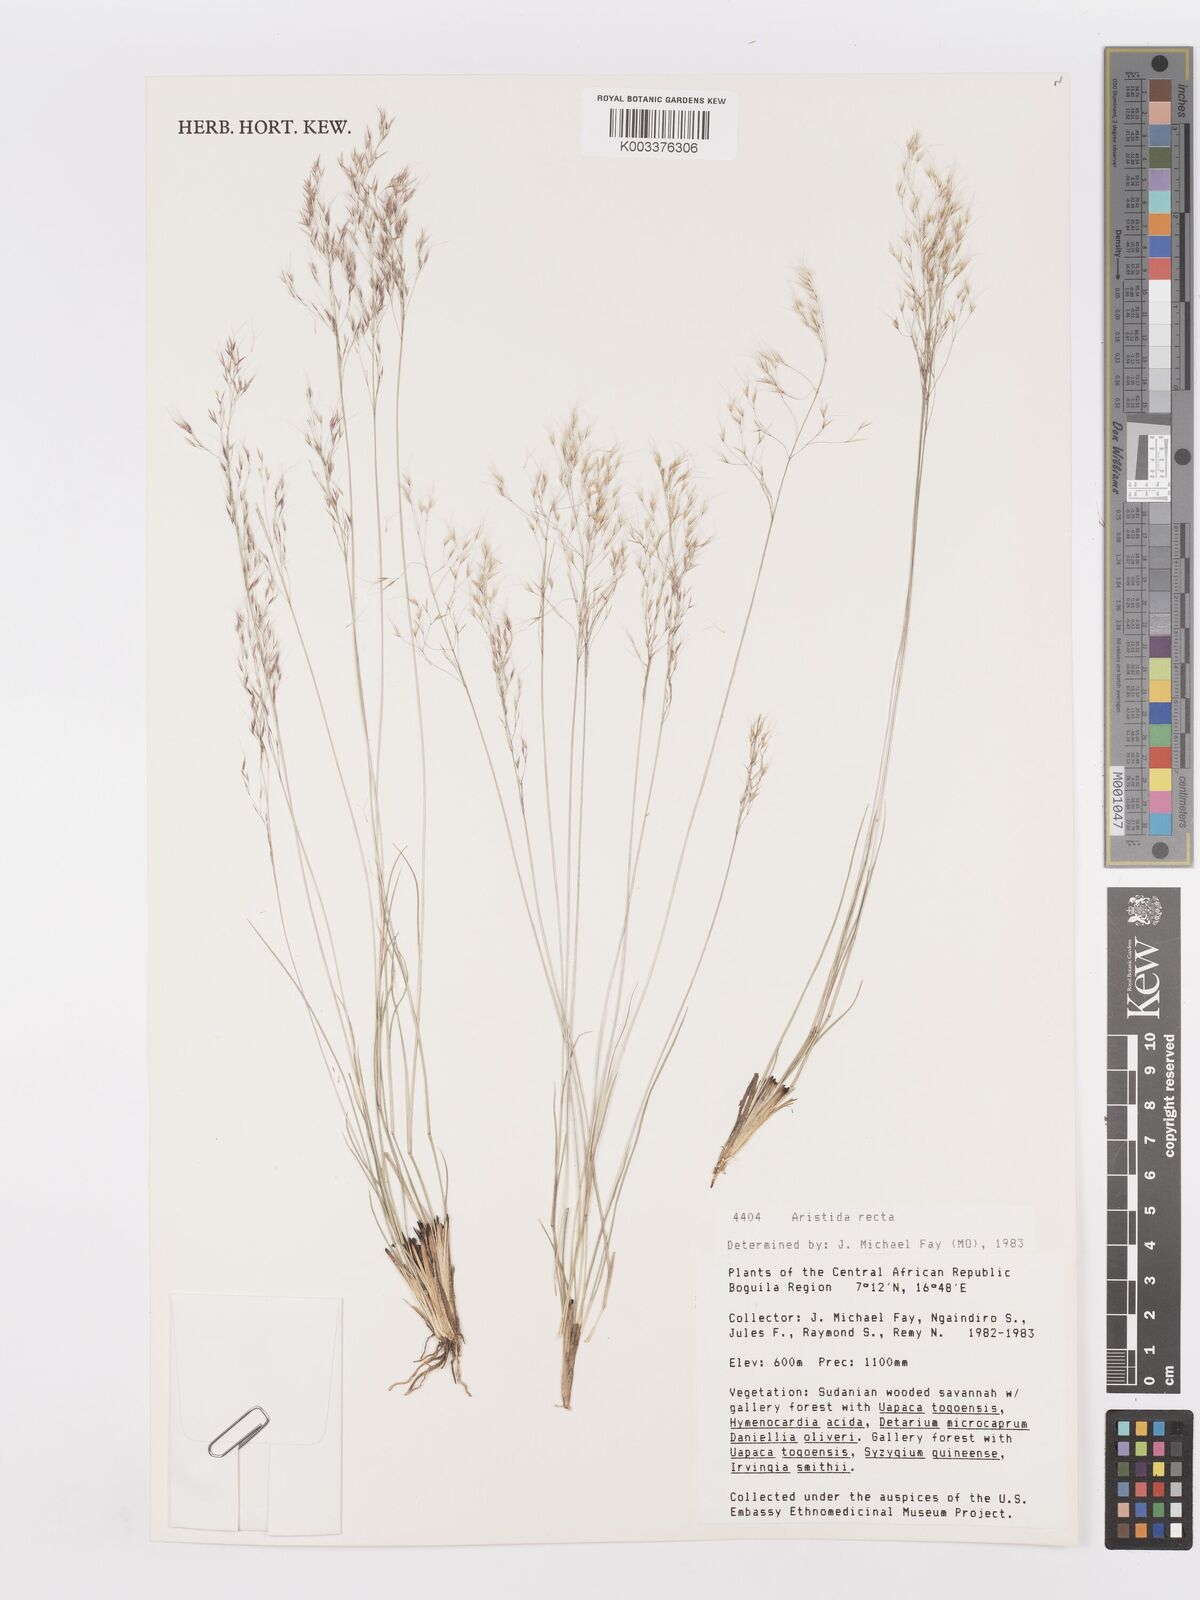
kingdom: Plantae
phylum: Tracheophyta
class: Liliopsida
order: Poales
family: Poaceae
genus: Aristida
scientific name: Aristida recta
